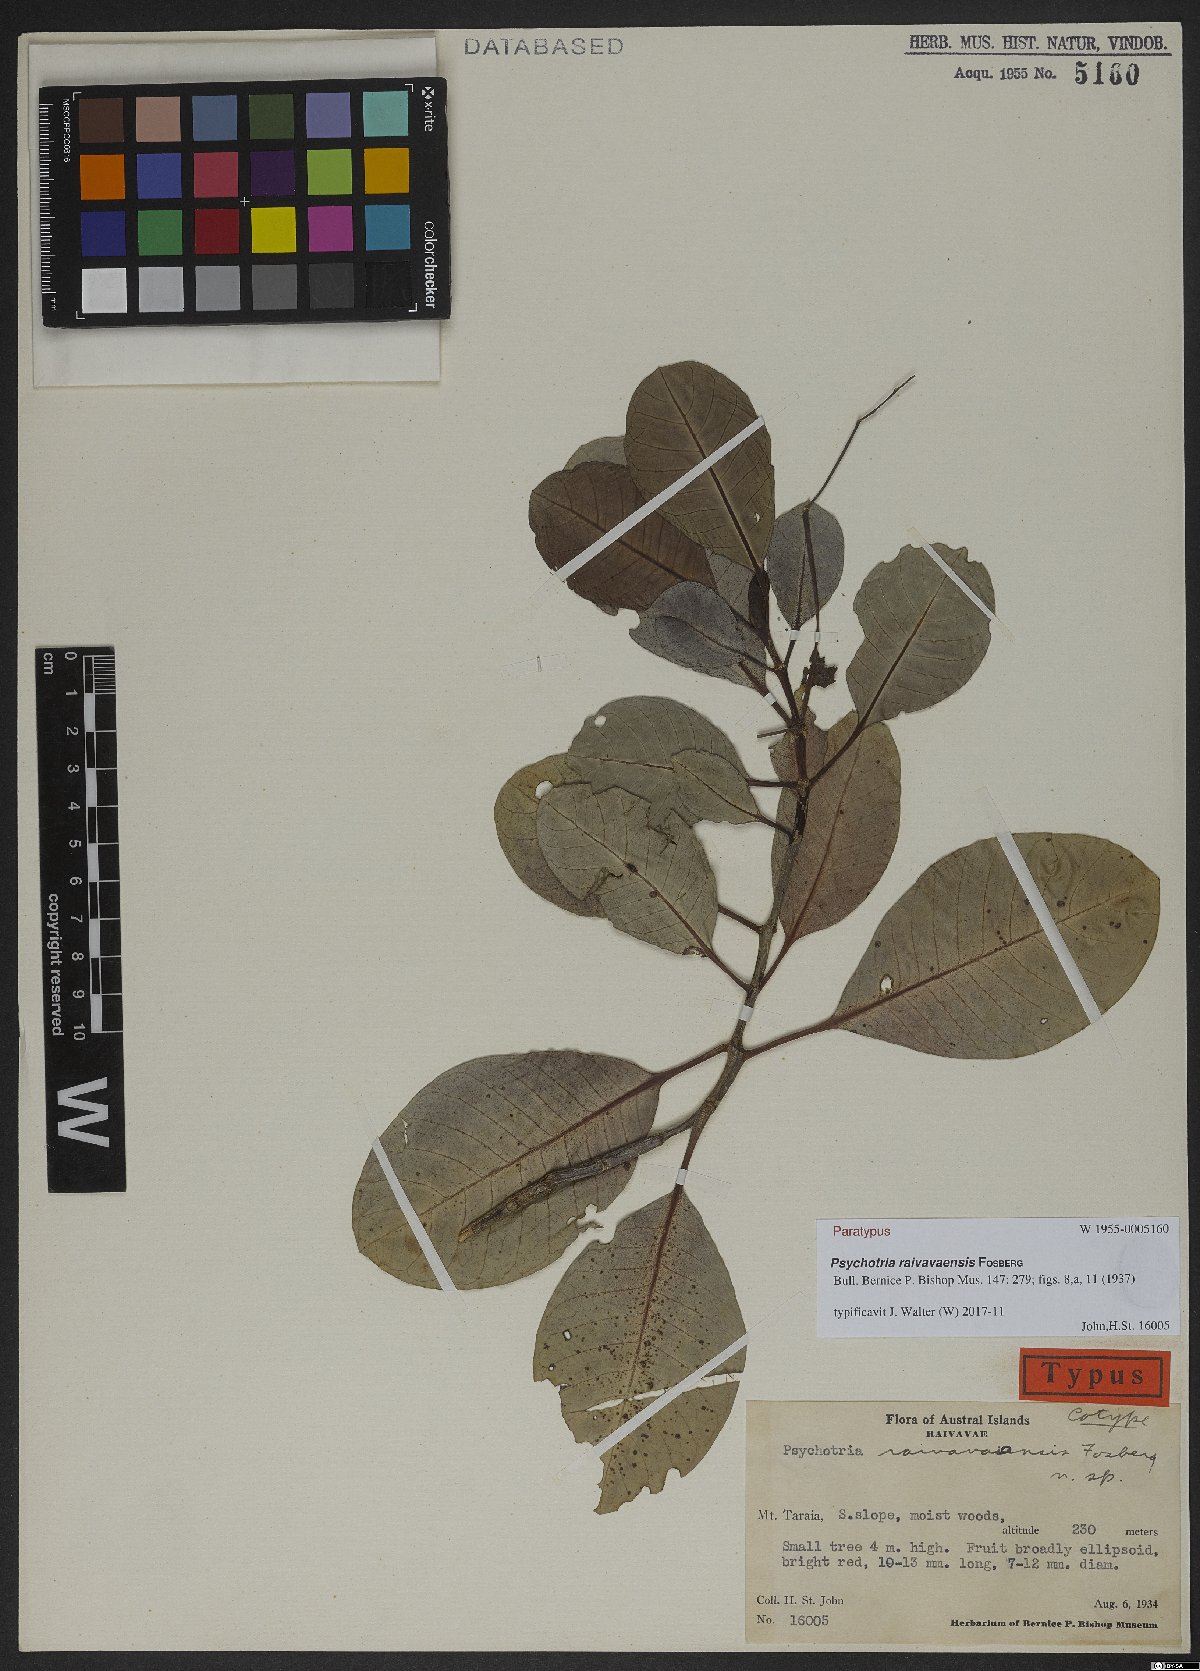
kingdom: Plantae
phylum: Tracheophyta
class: Magnoliopsida
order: Gentianales
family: Rubiaceae
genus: Psychotria
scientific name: Psychotria raivavaensis
